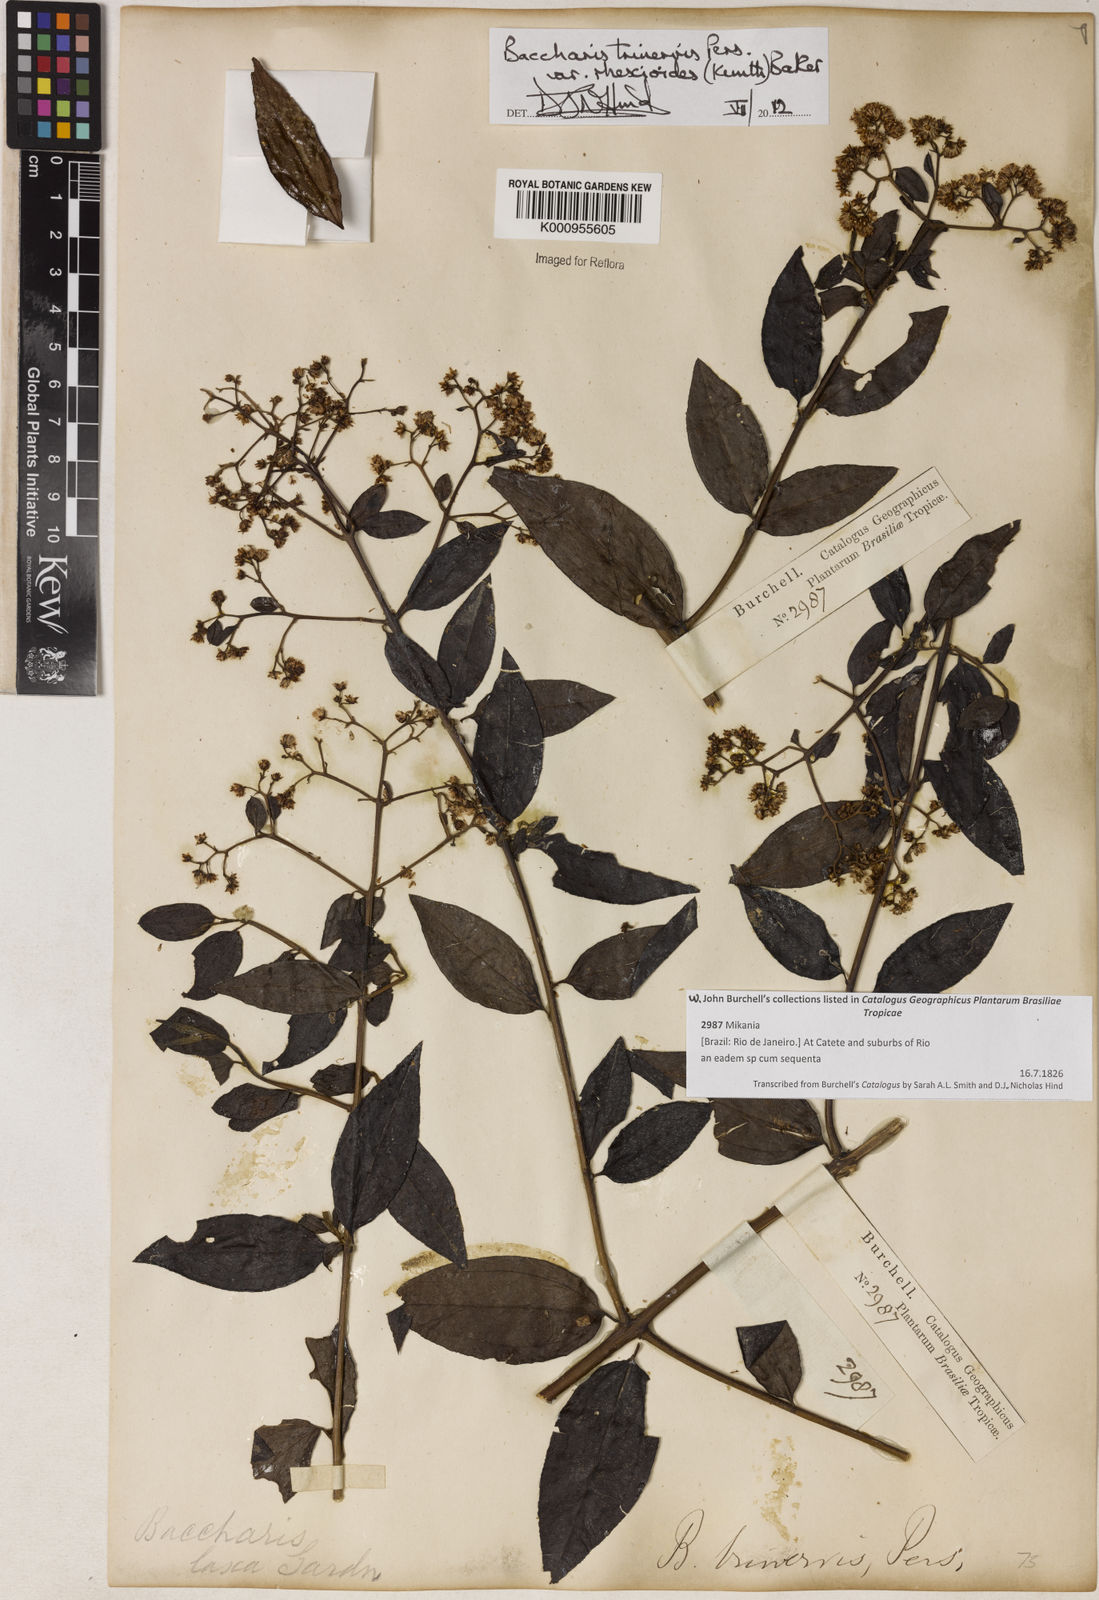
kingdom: Plantae
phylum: Tracheophyta
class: Magnoliopsida
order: Asterales
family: Asteraceae
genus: Baccharis
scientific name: Baccharis trinervis
